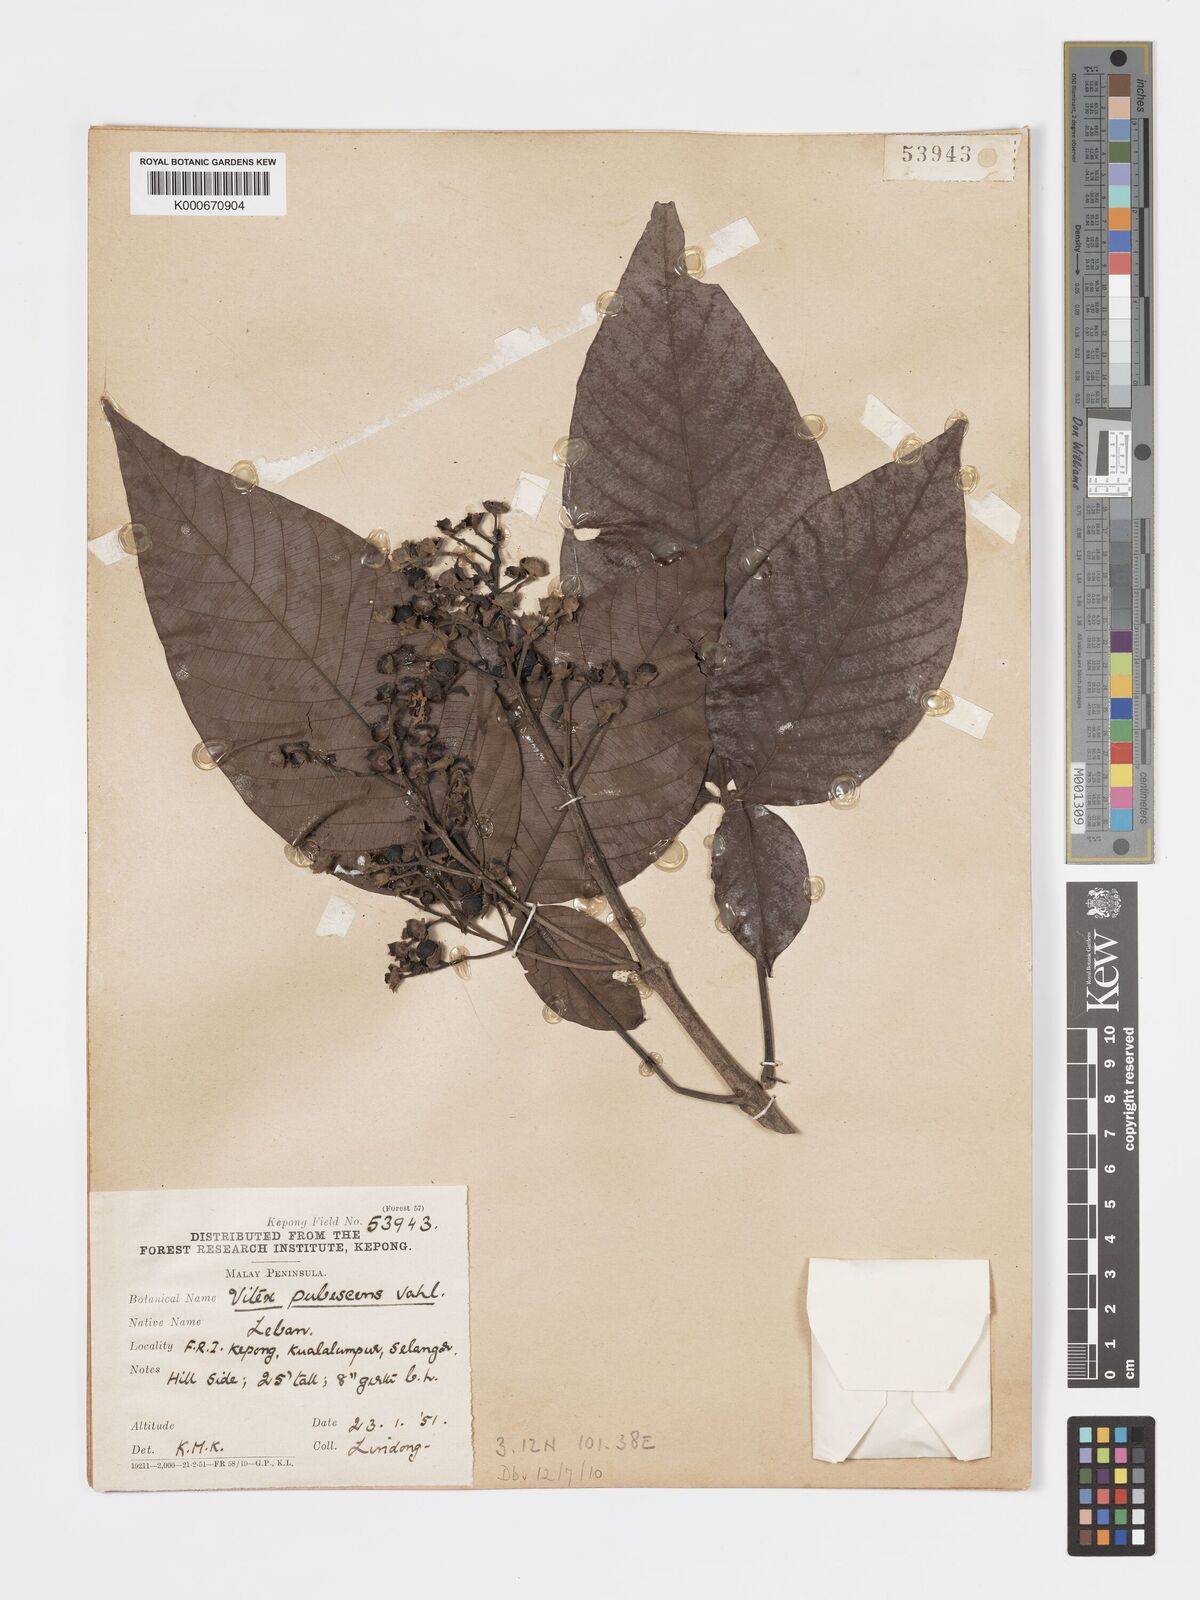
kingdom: Plantae
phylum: Tracheophyta
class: Magnoliopsida
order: Lamiales
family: Lamiaceae
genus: Vitex
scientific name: Vitex pinnata
